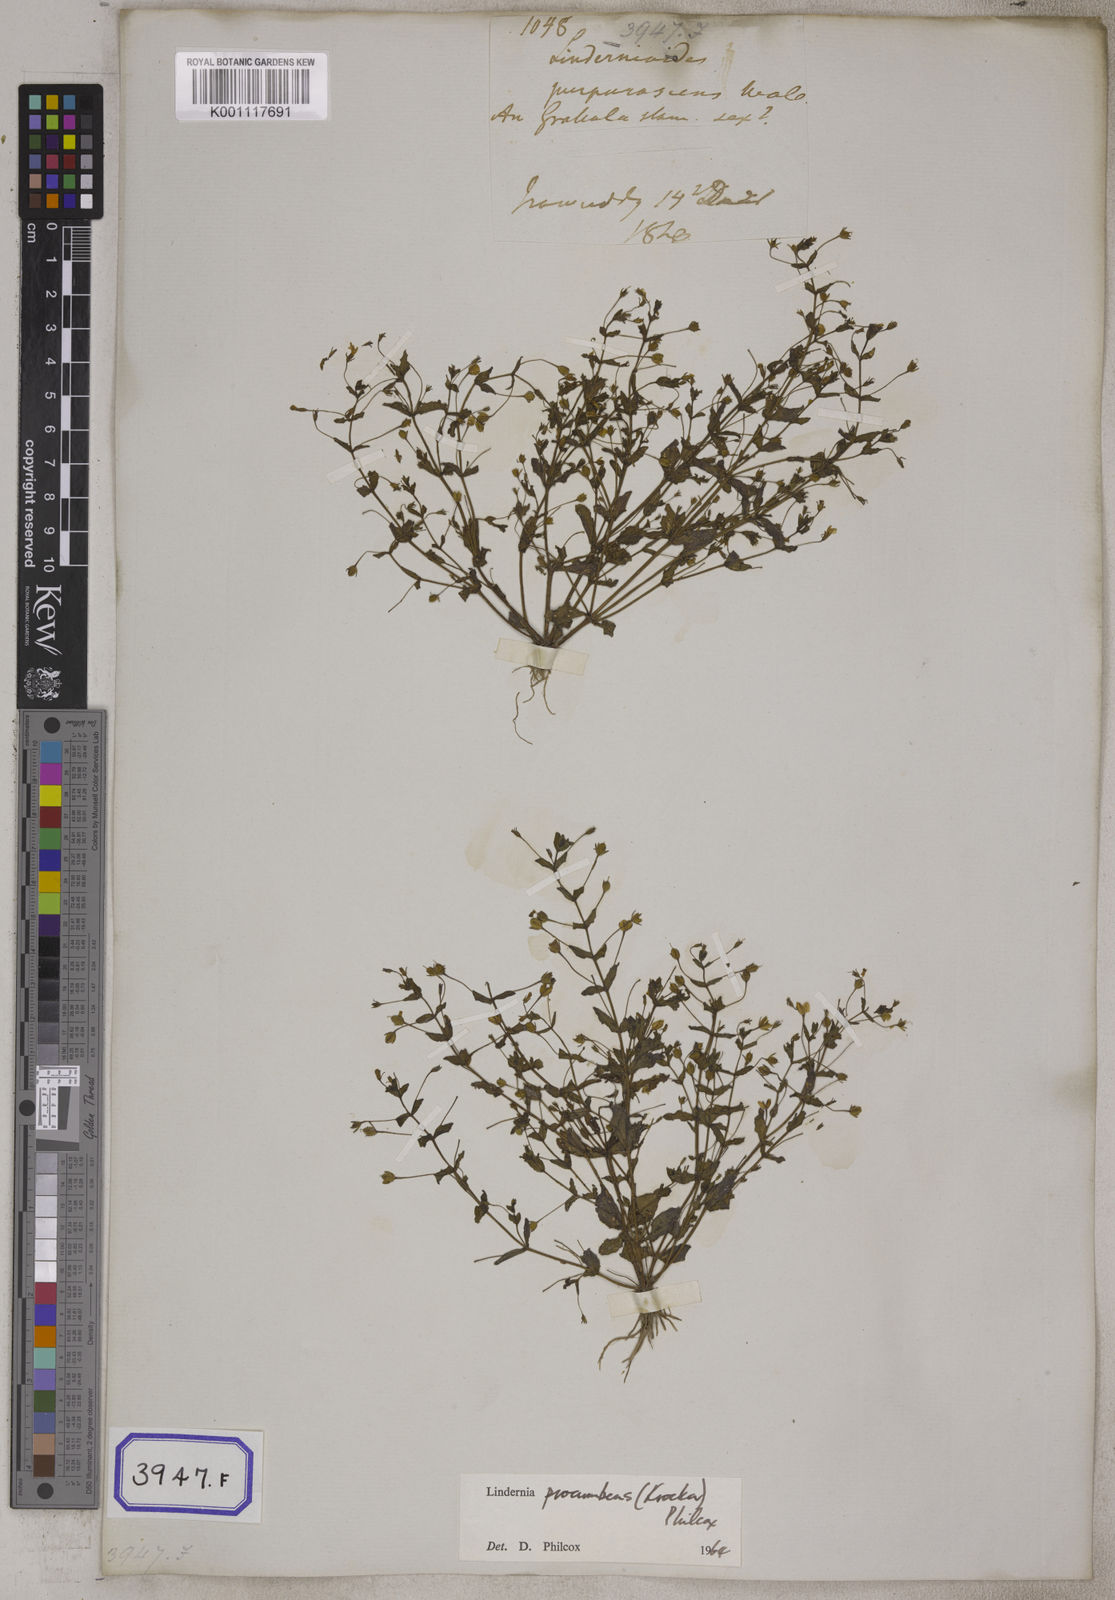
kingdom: Plantae
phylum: Tracheophyta
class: Magnoliopsida
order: Lamiales
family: Linderniaceae
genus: Lindernia
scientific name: Lindernia procumbens
